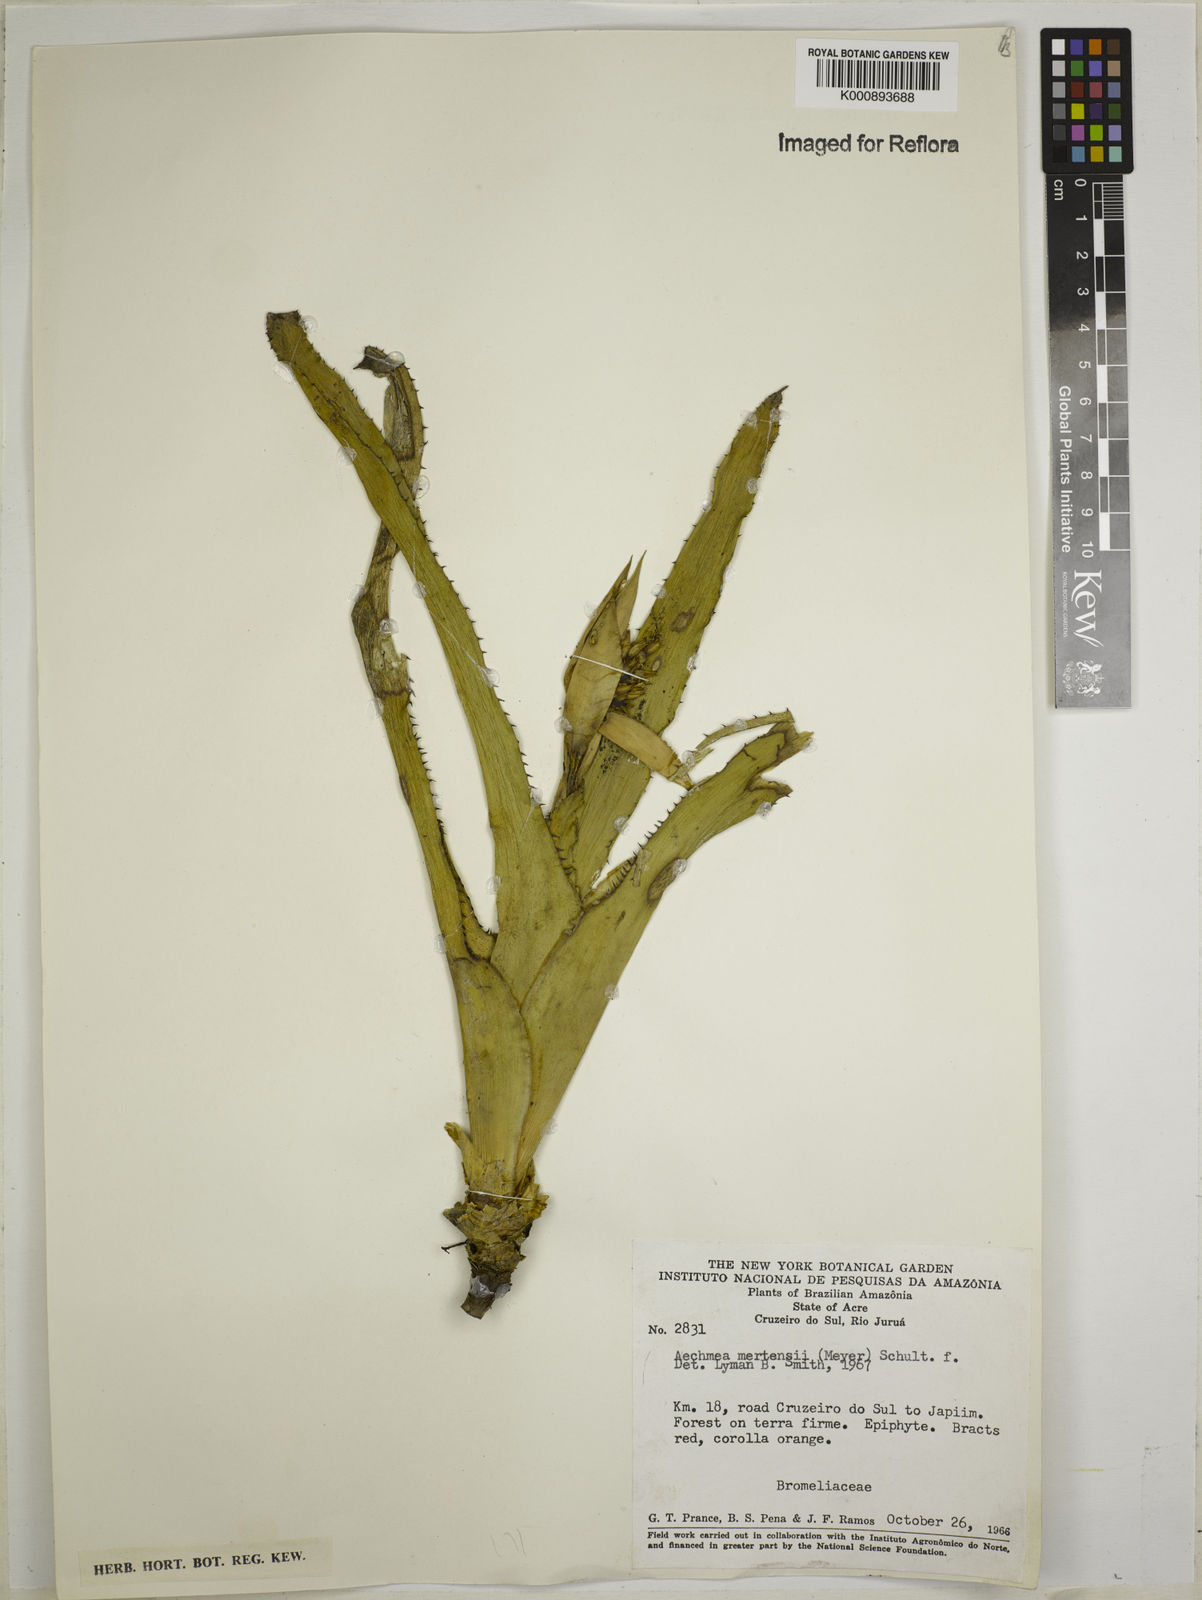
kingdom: Plantae
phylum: Tracheophyta
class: Liliopsida
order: Poales
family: Bromeliaceae
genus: Aechmea
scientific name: Aechmea mertensii
